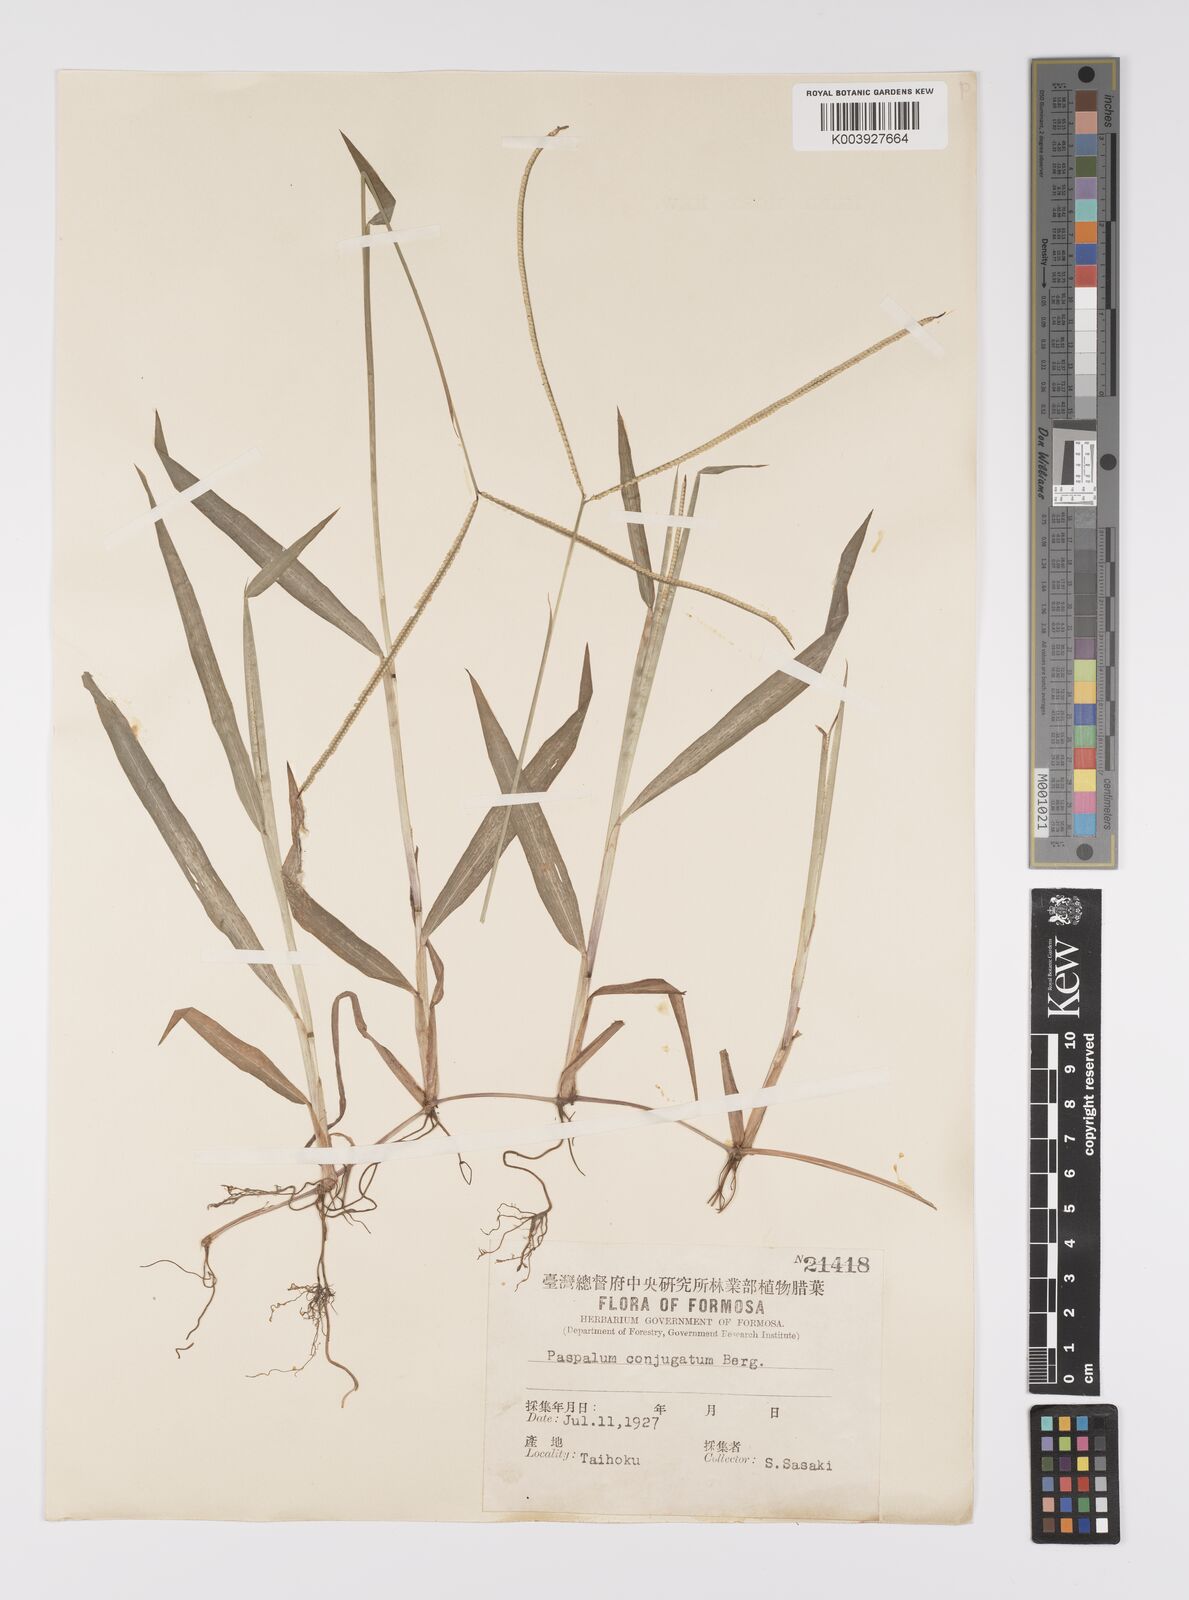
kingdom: Plantae
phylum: Tracheophyta
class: Liliopsida
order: Poales
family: Poaceae
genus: Paspalum
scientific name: Paspalum conjugatum
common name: Hilograss
